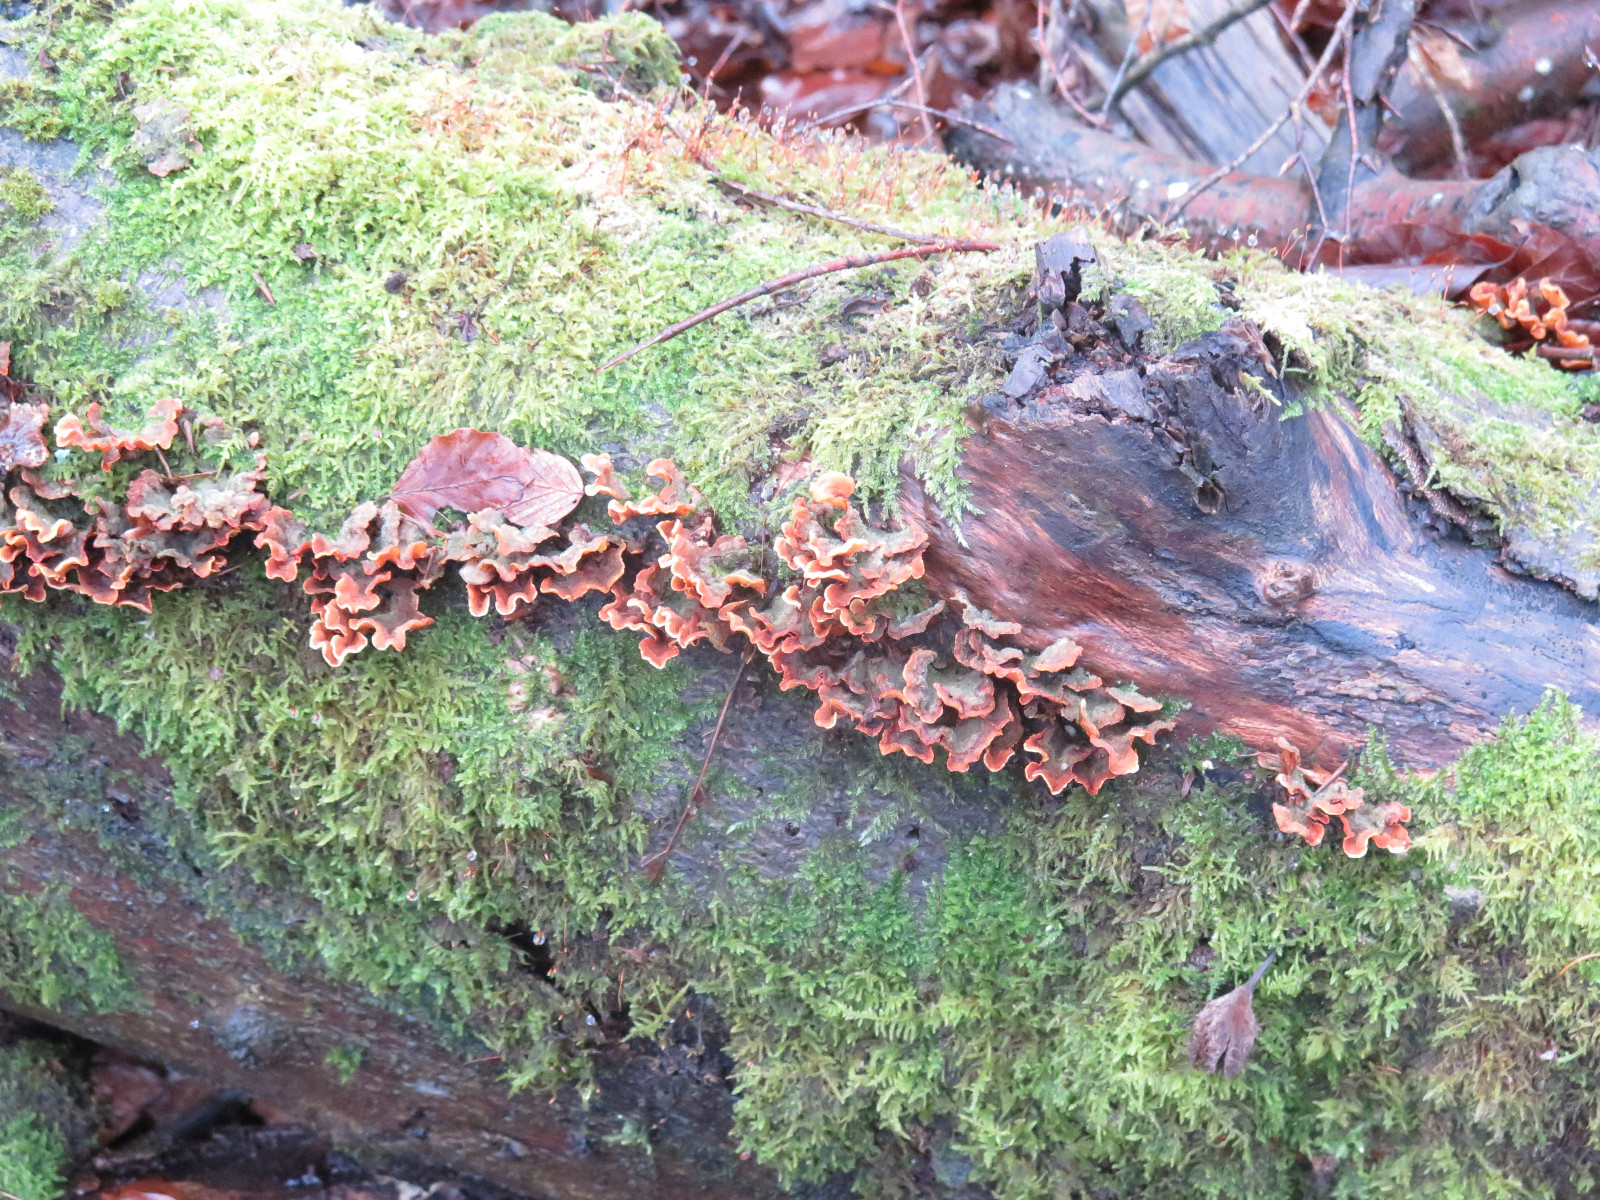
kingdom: Fungi
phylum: Basidiomycota
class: Agaricomycetes
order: Russulales
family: Stereaceae
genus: Stereum
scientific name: Stereum hirsutum
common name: håret lædersvamp
